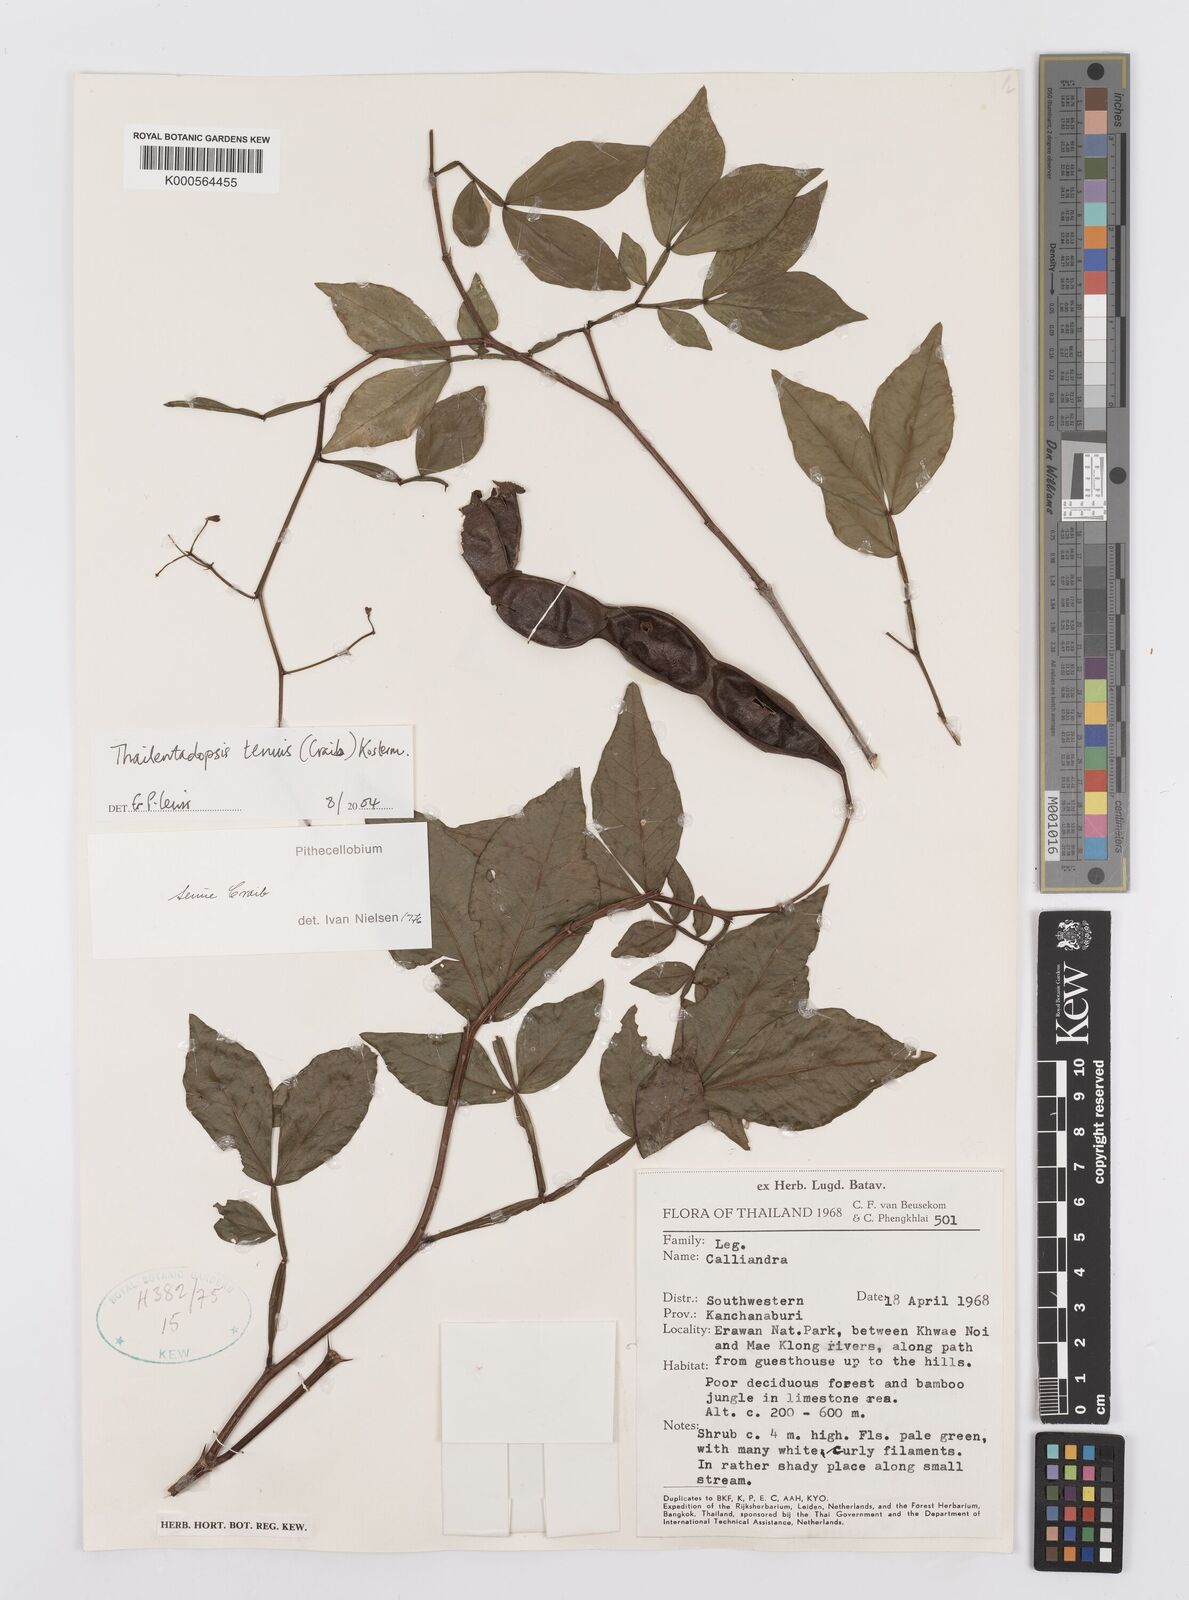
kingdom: Plantae
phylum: Tracheophyta
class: Magnoliopsida
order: Fabales
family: Fabaceae
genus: Thailentadopsis
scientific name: Thailentadopsis tenuis
